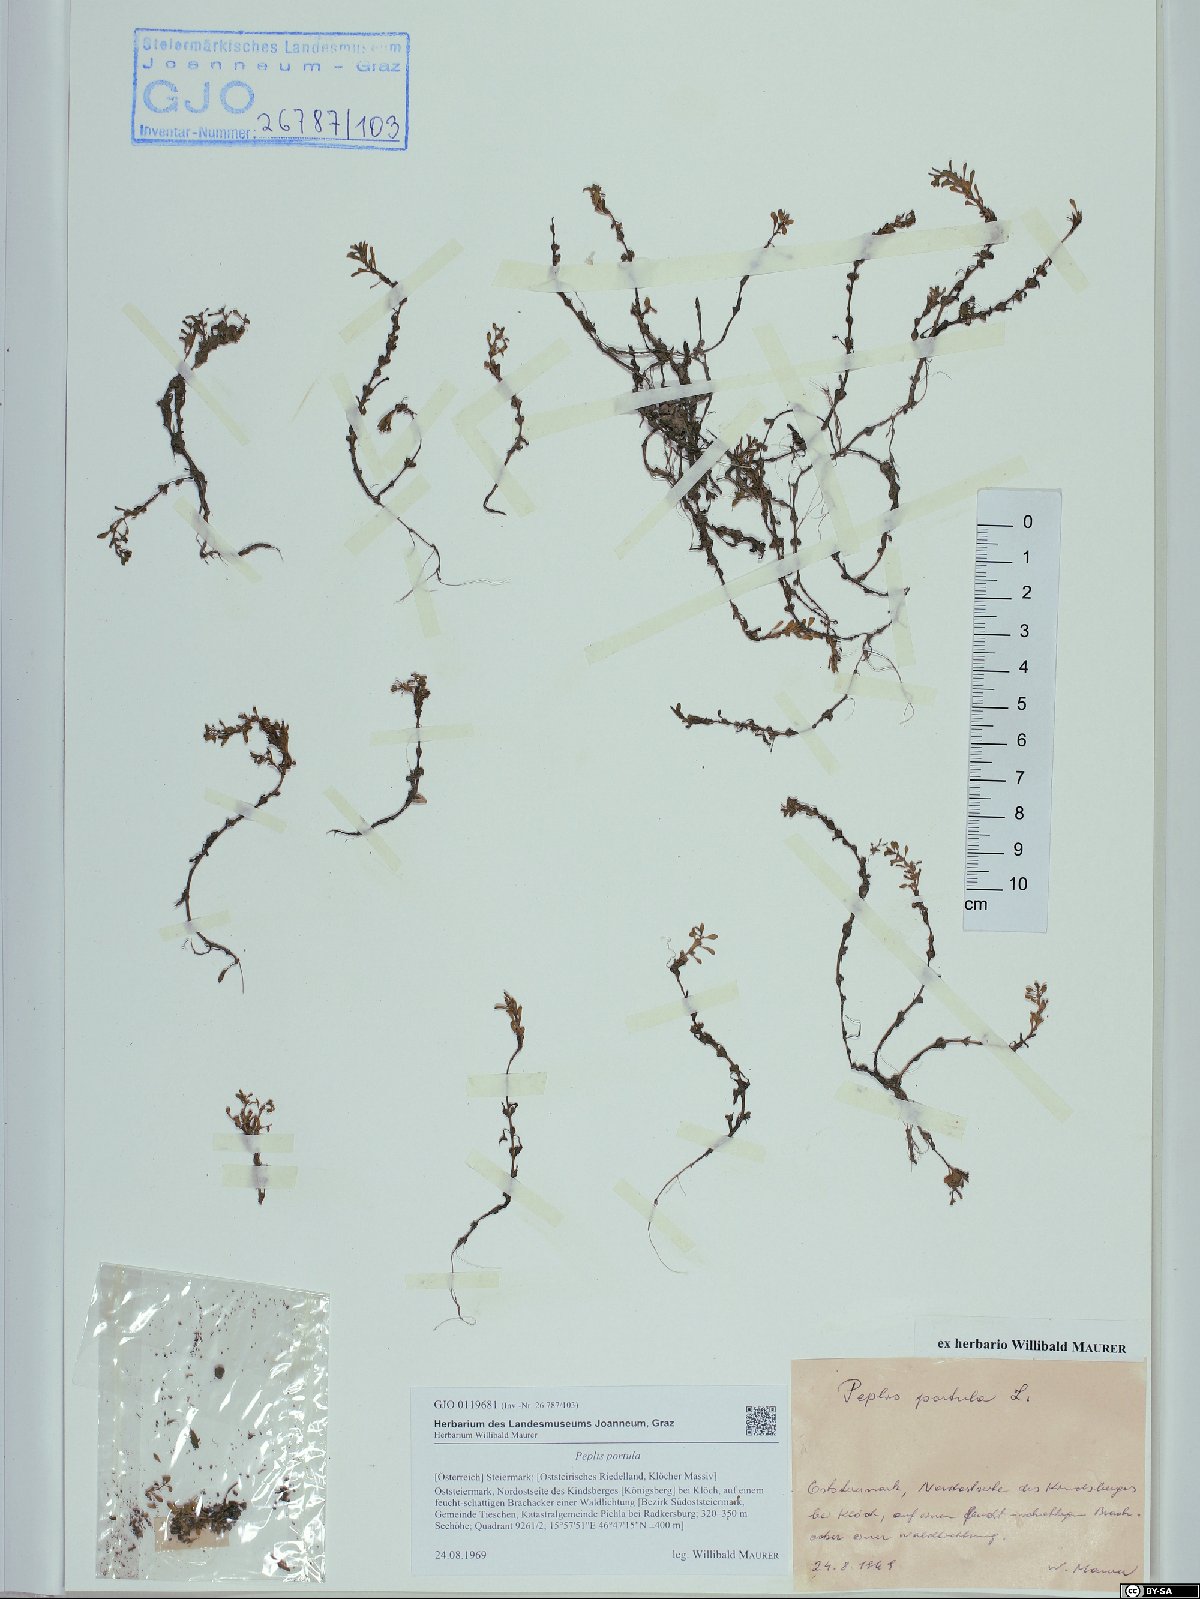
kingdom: Plantae
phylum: Tracheophyta
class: Magnoliopsida
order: Myrtales
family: Lythraceae
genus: Lythrum
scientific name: Lythrum portula
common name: Water purslane
